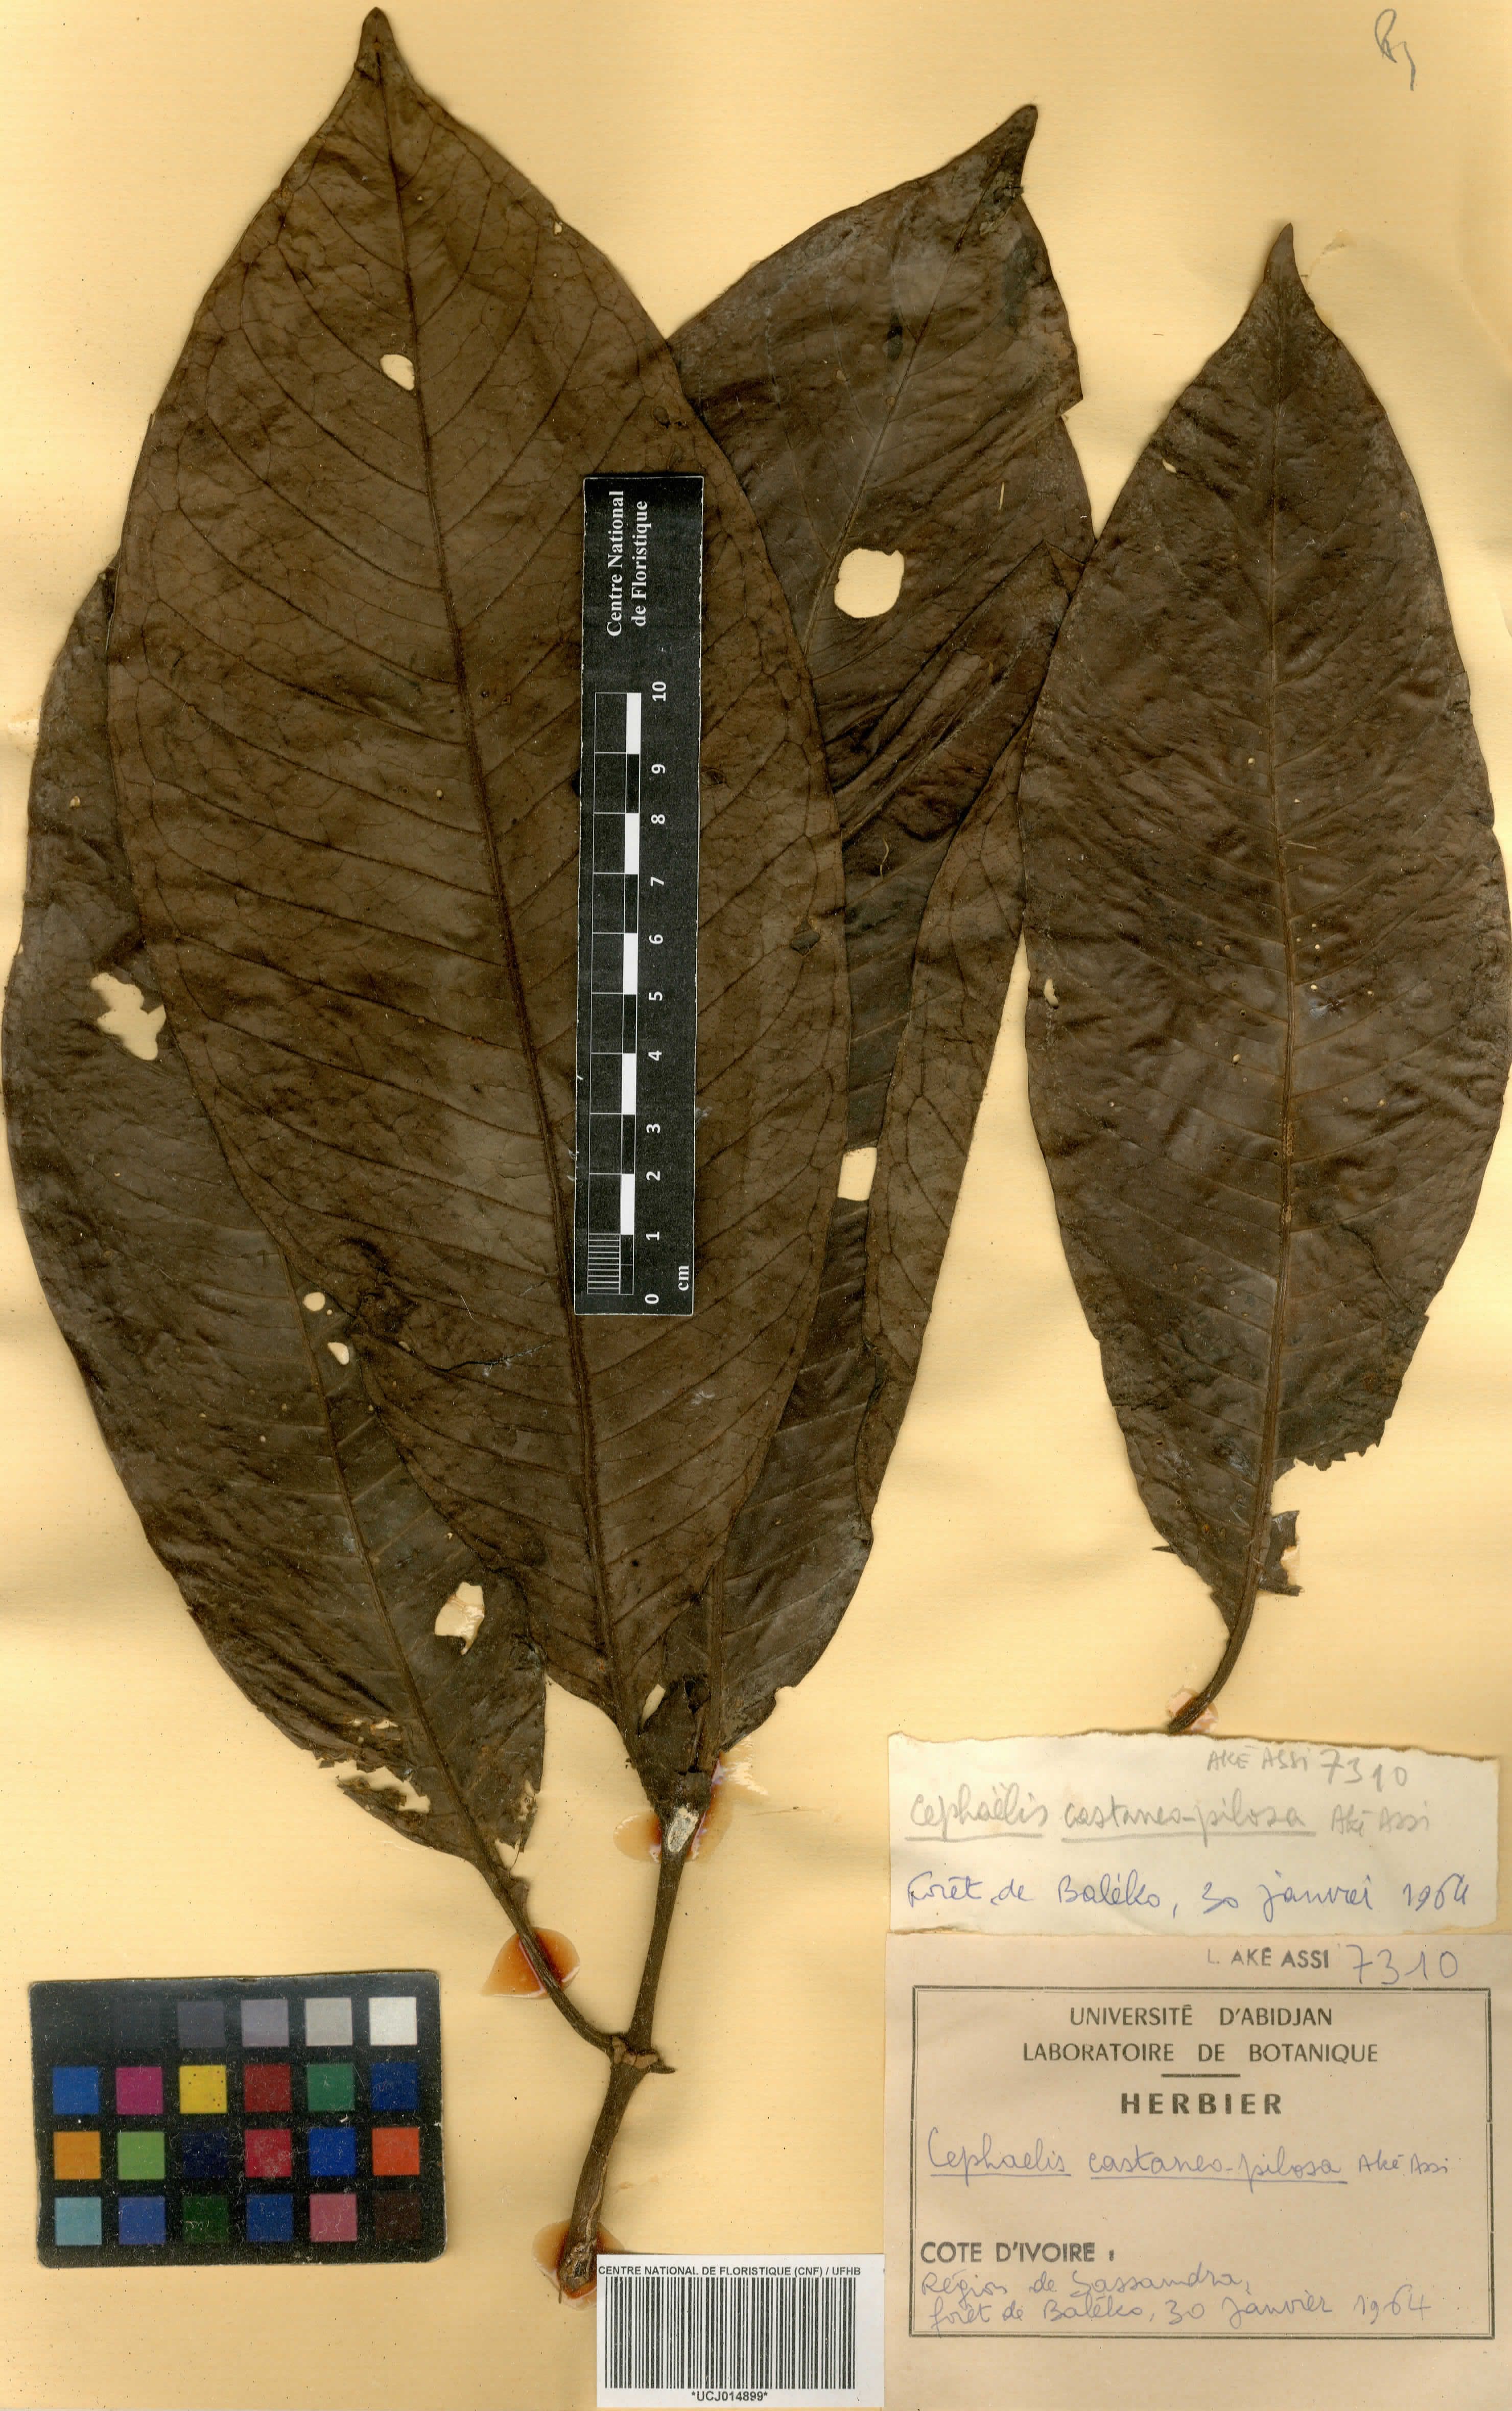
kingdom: Plantae
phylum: Tracheophyta
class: Magnoliopsida
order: Gentianales
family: Rubiaceae
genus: Psychotria
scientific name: Psychotria Cephaelis castaneopilosa
